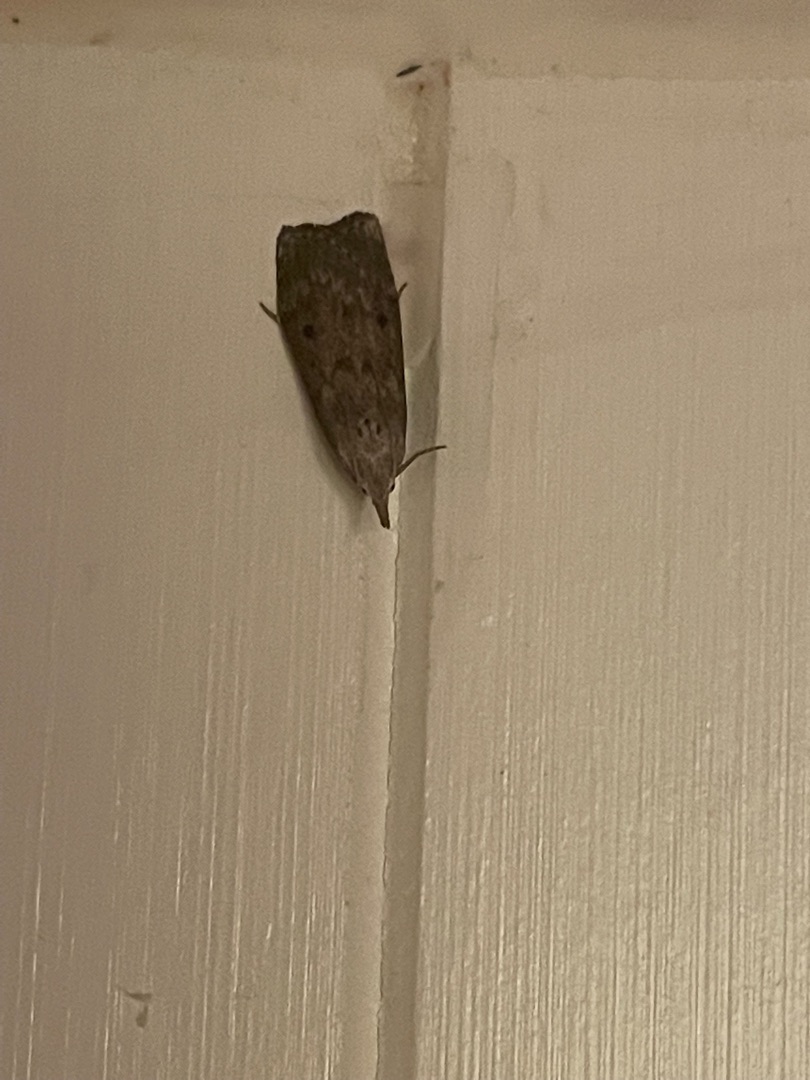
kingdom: Animalia
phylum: Arthropoda
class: Insecta
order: Lepidoptera
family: Pyralidae
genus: Aphomia
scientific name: Aphomia sociella
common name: Humlevoksmøl
